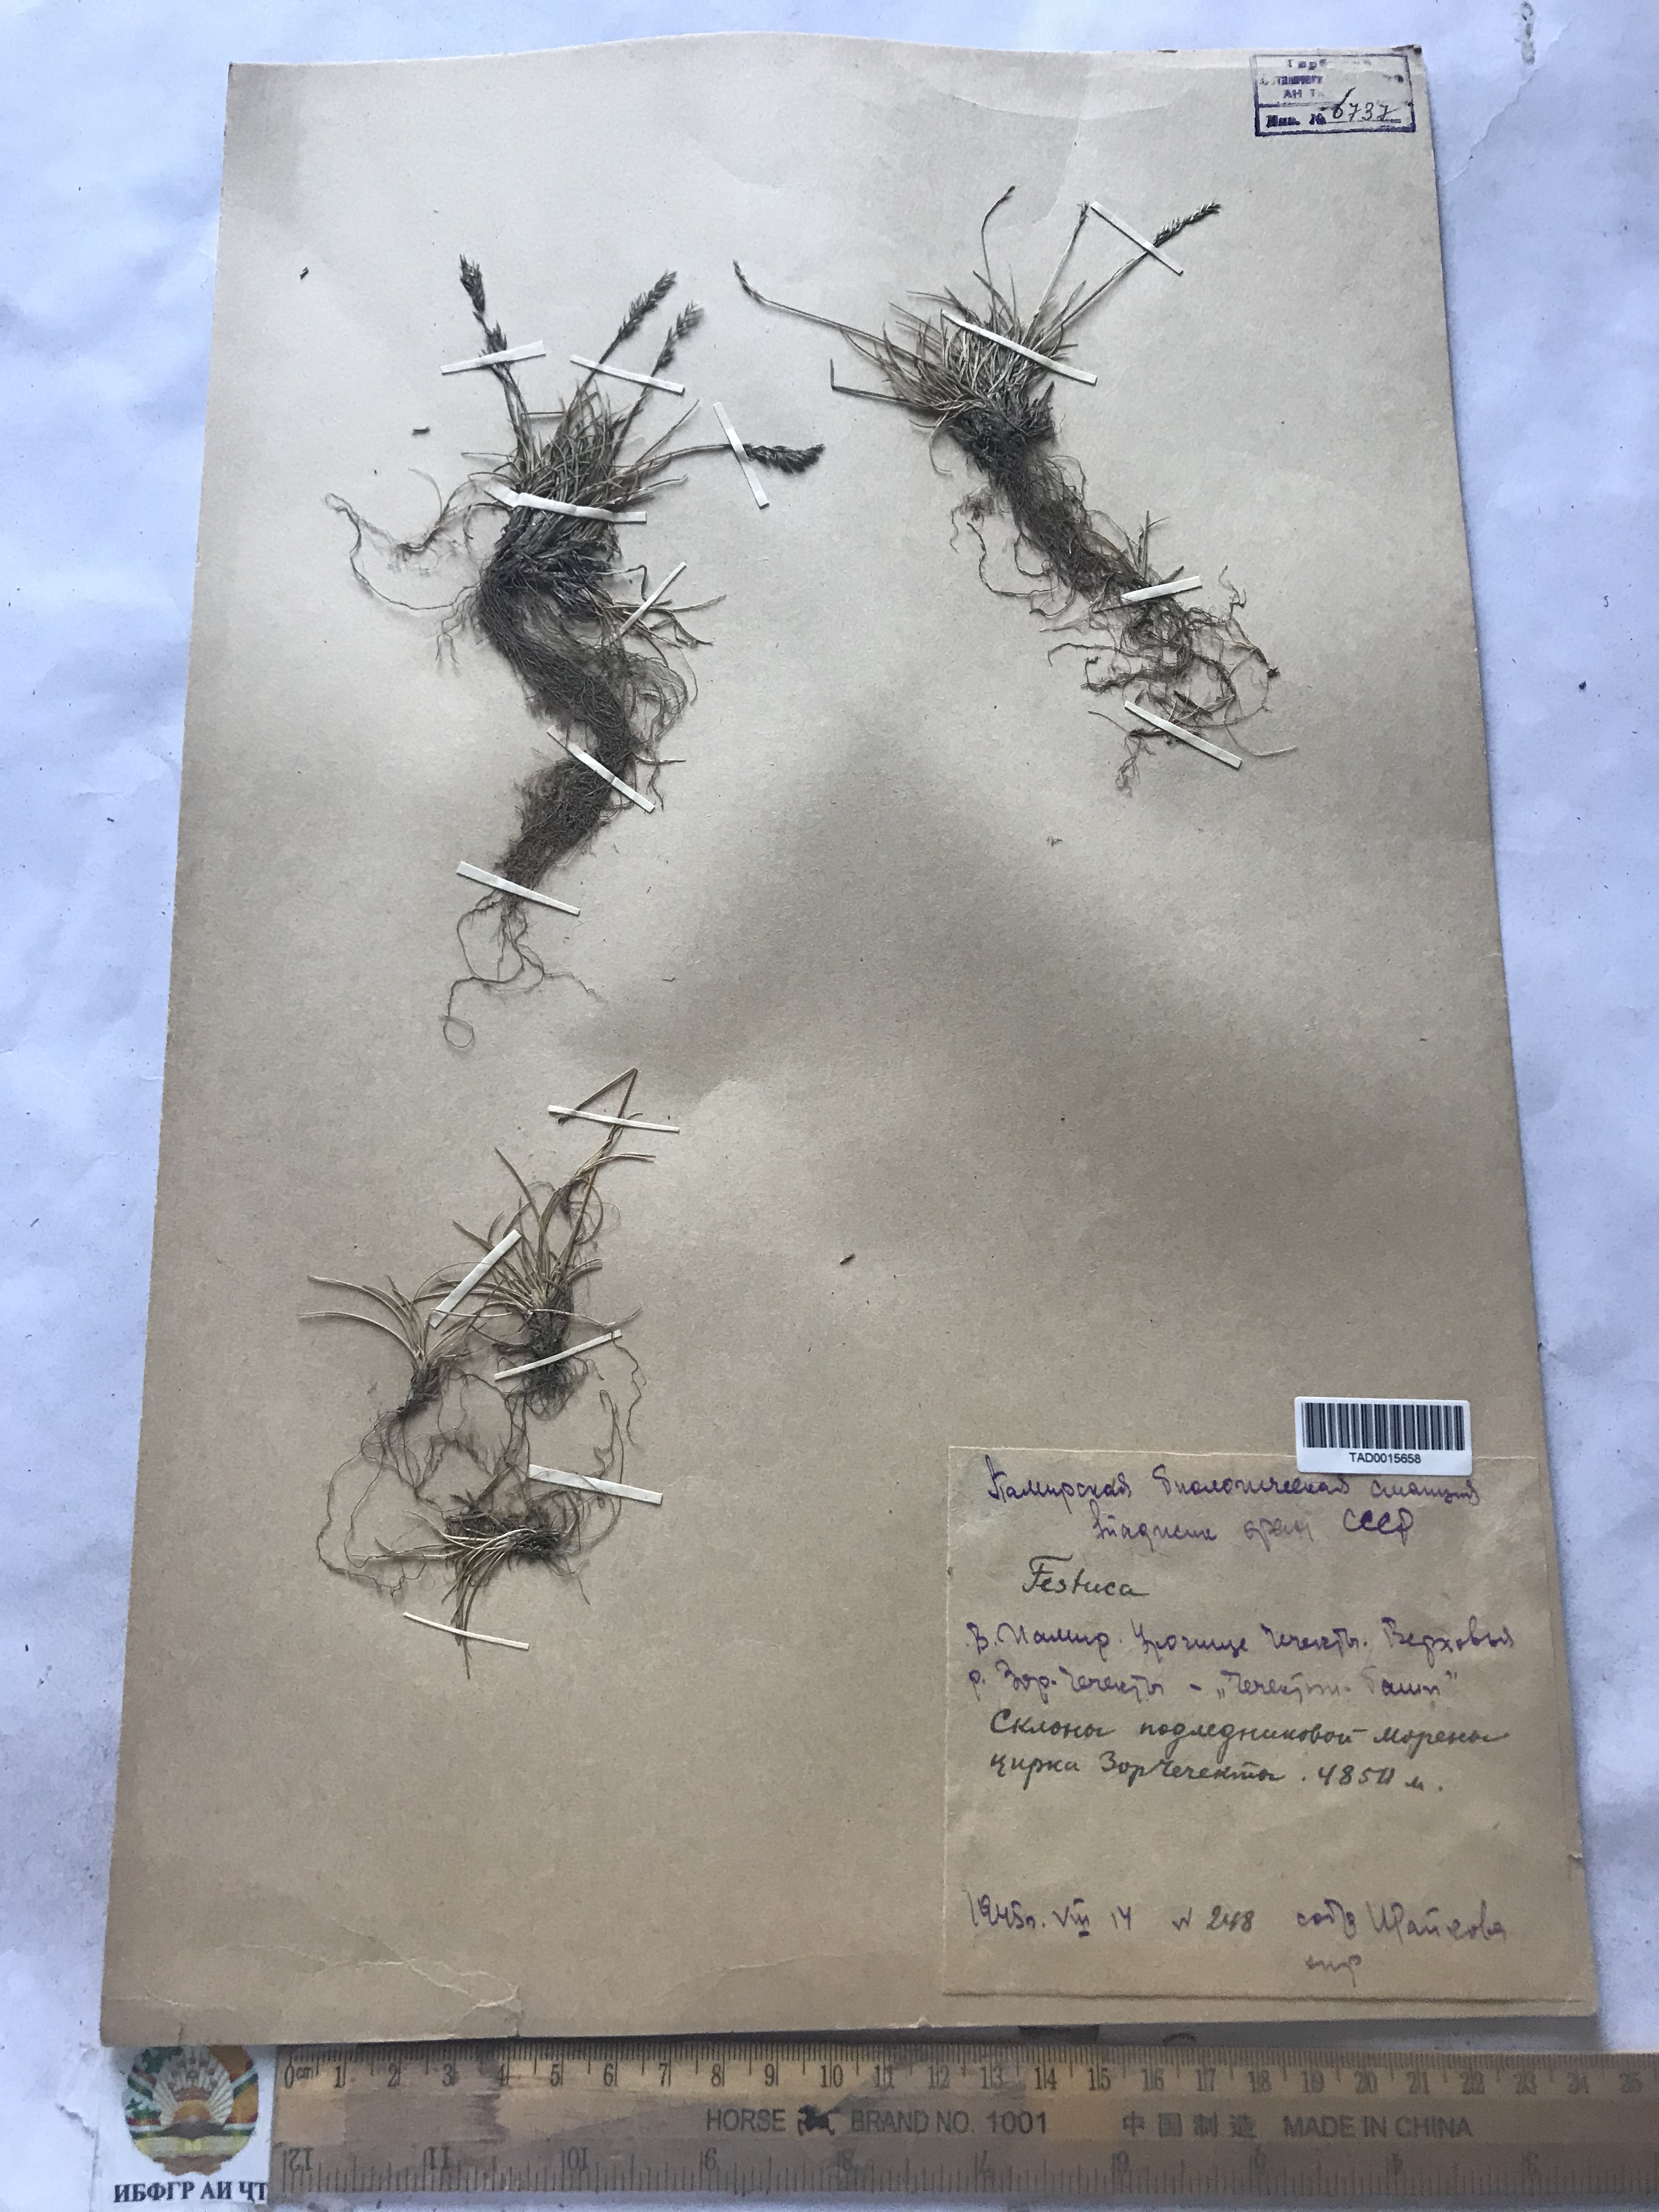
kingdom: Plantae
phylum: Tracheophyta
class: Liliopsida
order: Poales
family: Poaceae
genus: Festuca
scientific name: Festuca
